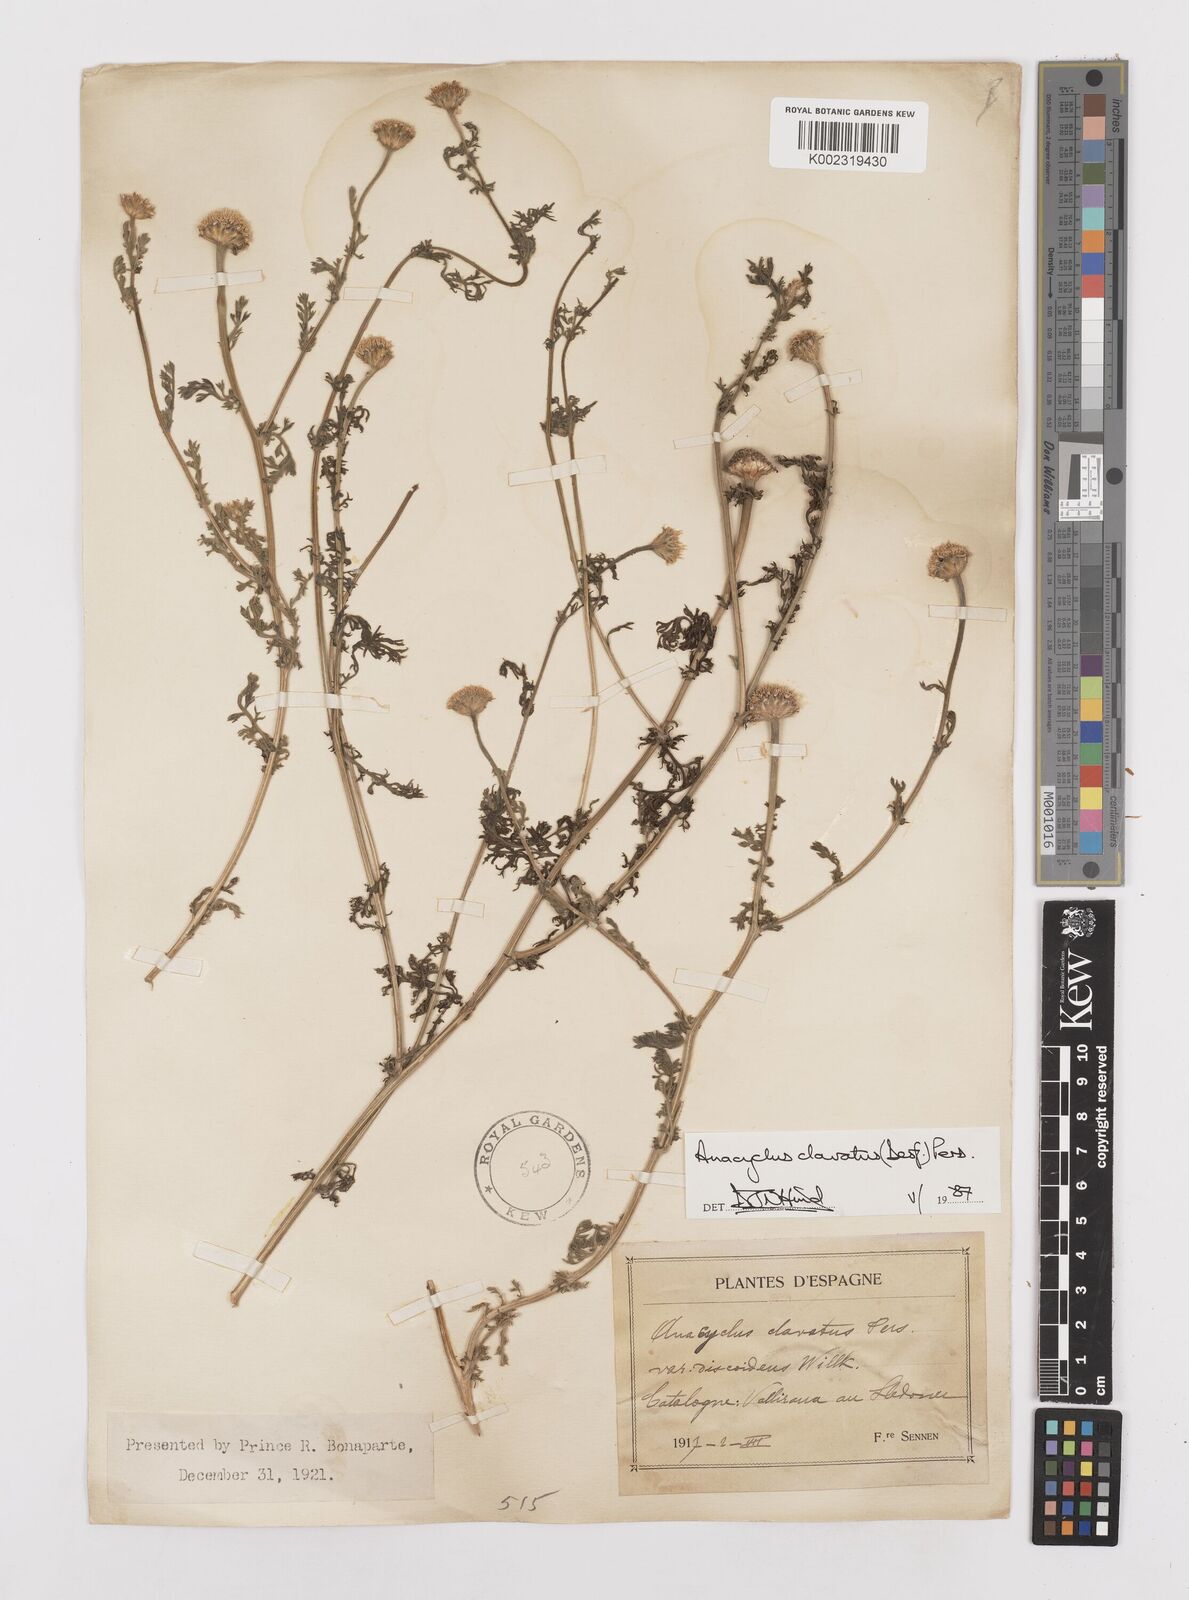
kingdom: Plantae
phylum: Tracheophyta
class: Magnoliopsida
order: Asterales
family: Asteraceae
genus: Anacyclus
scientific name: Anacyclus clavatus
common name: Whitebuttons
